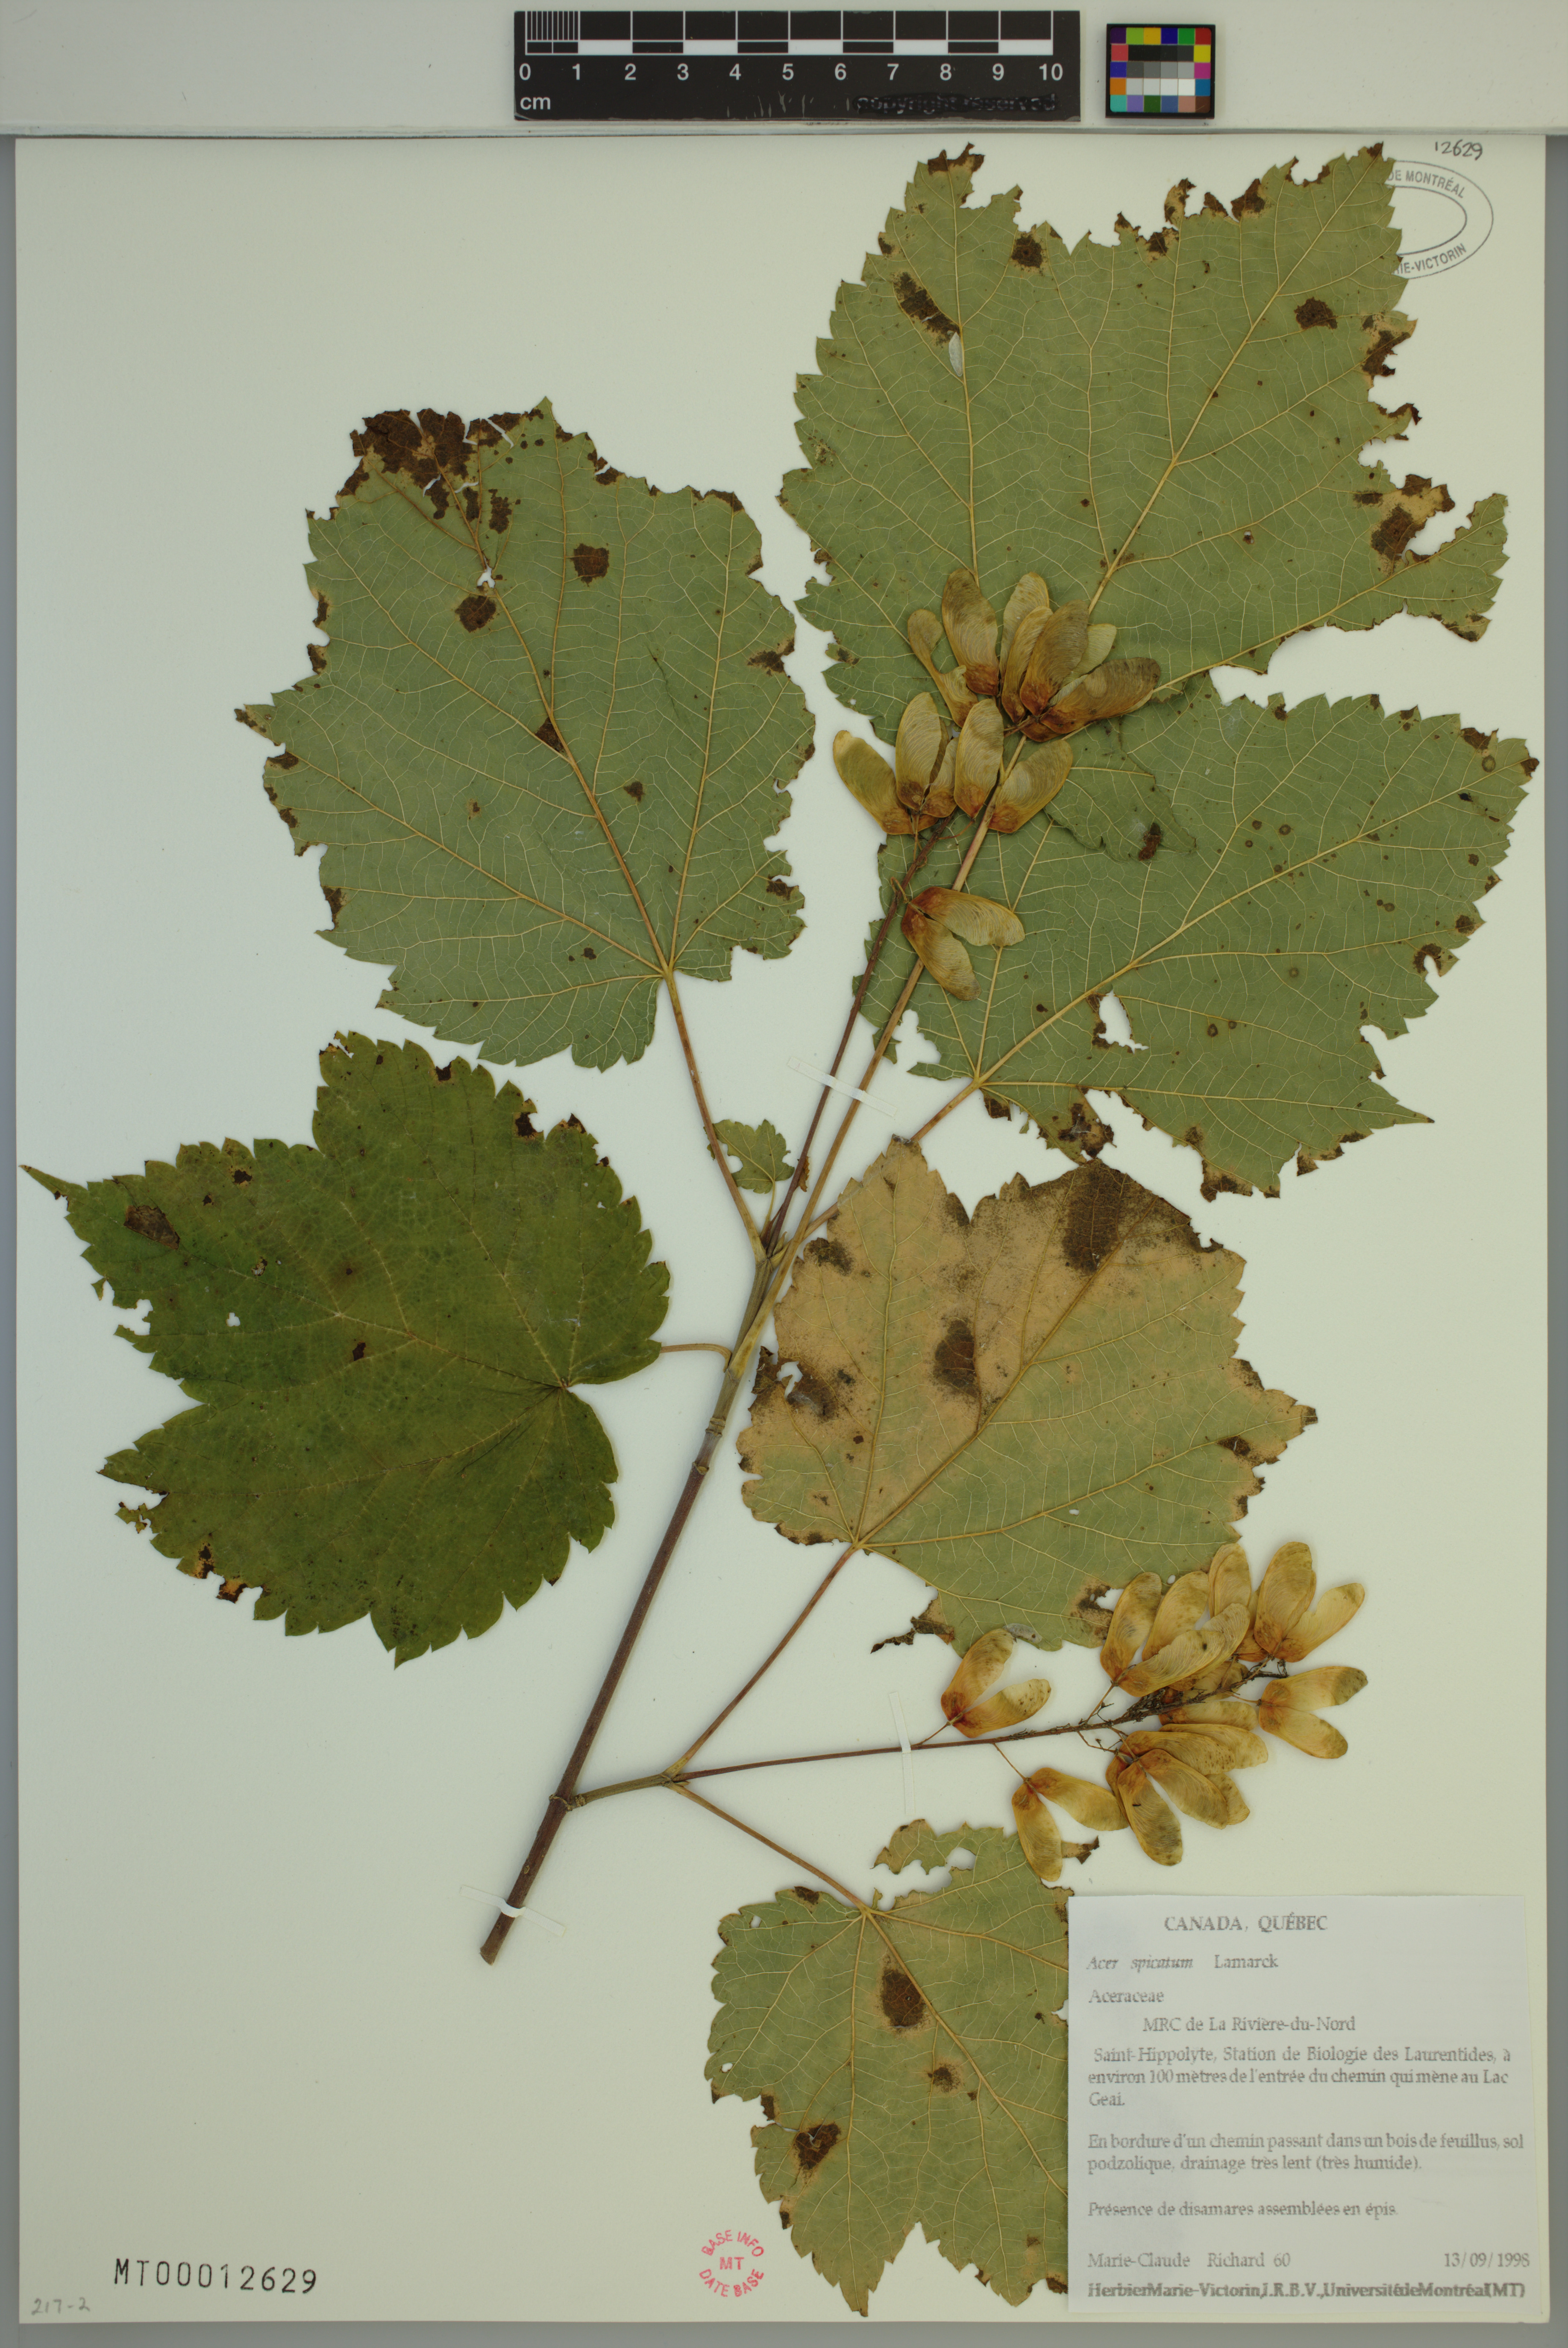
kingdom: Plantae
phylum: Tracheophyta
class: Magnoliopsida
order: Sapindales
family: Sapindaceae
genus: Acer
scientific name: Acer spicatum
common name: Mountain maple
